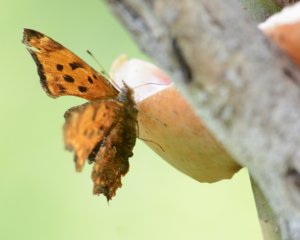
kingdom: Animalia
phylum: Arthropoda
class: Insecta
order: Lepidoptera
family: Nymphalidae
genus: Polygonia
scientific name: Polygonia comma
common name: Eastern Comma
